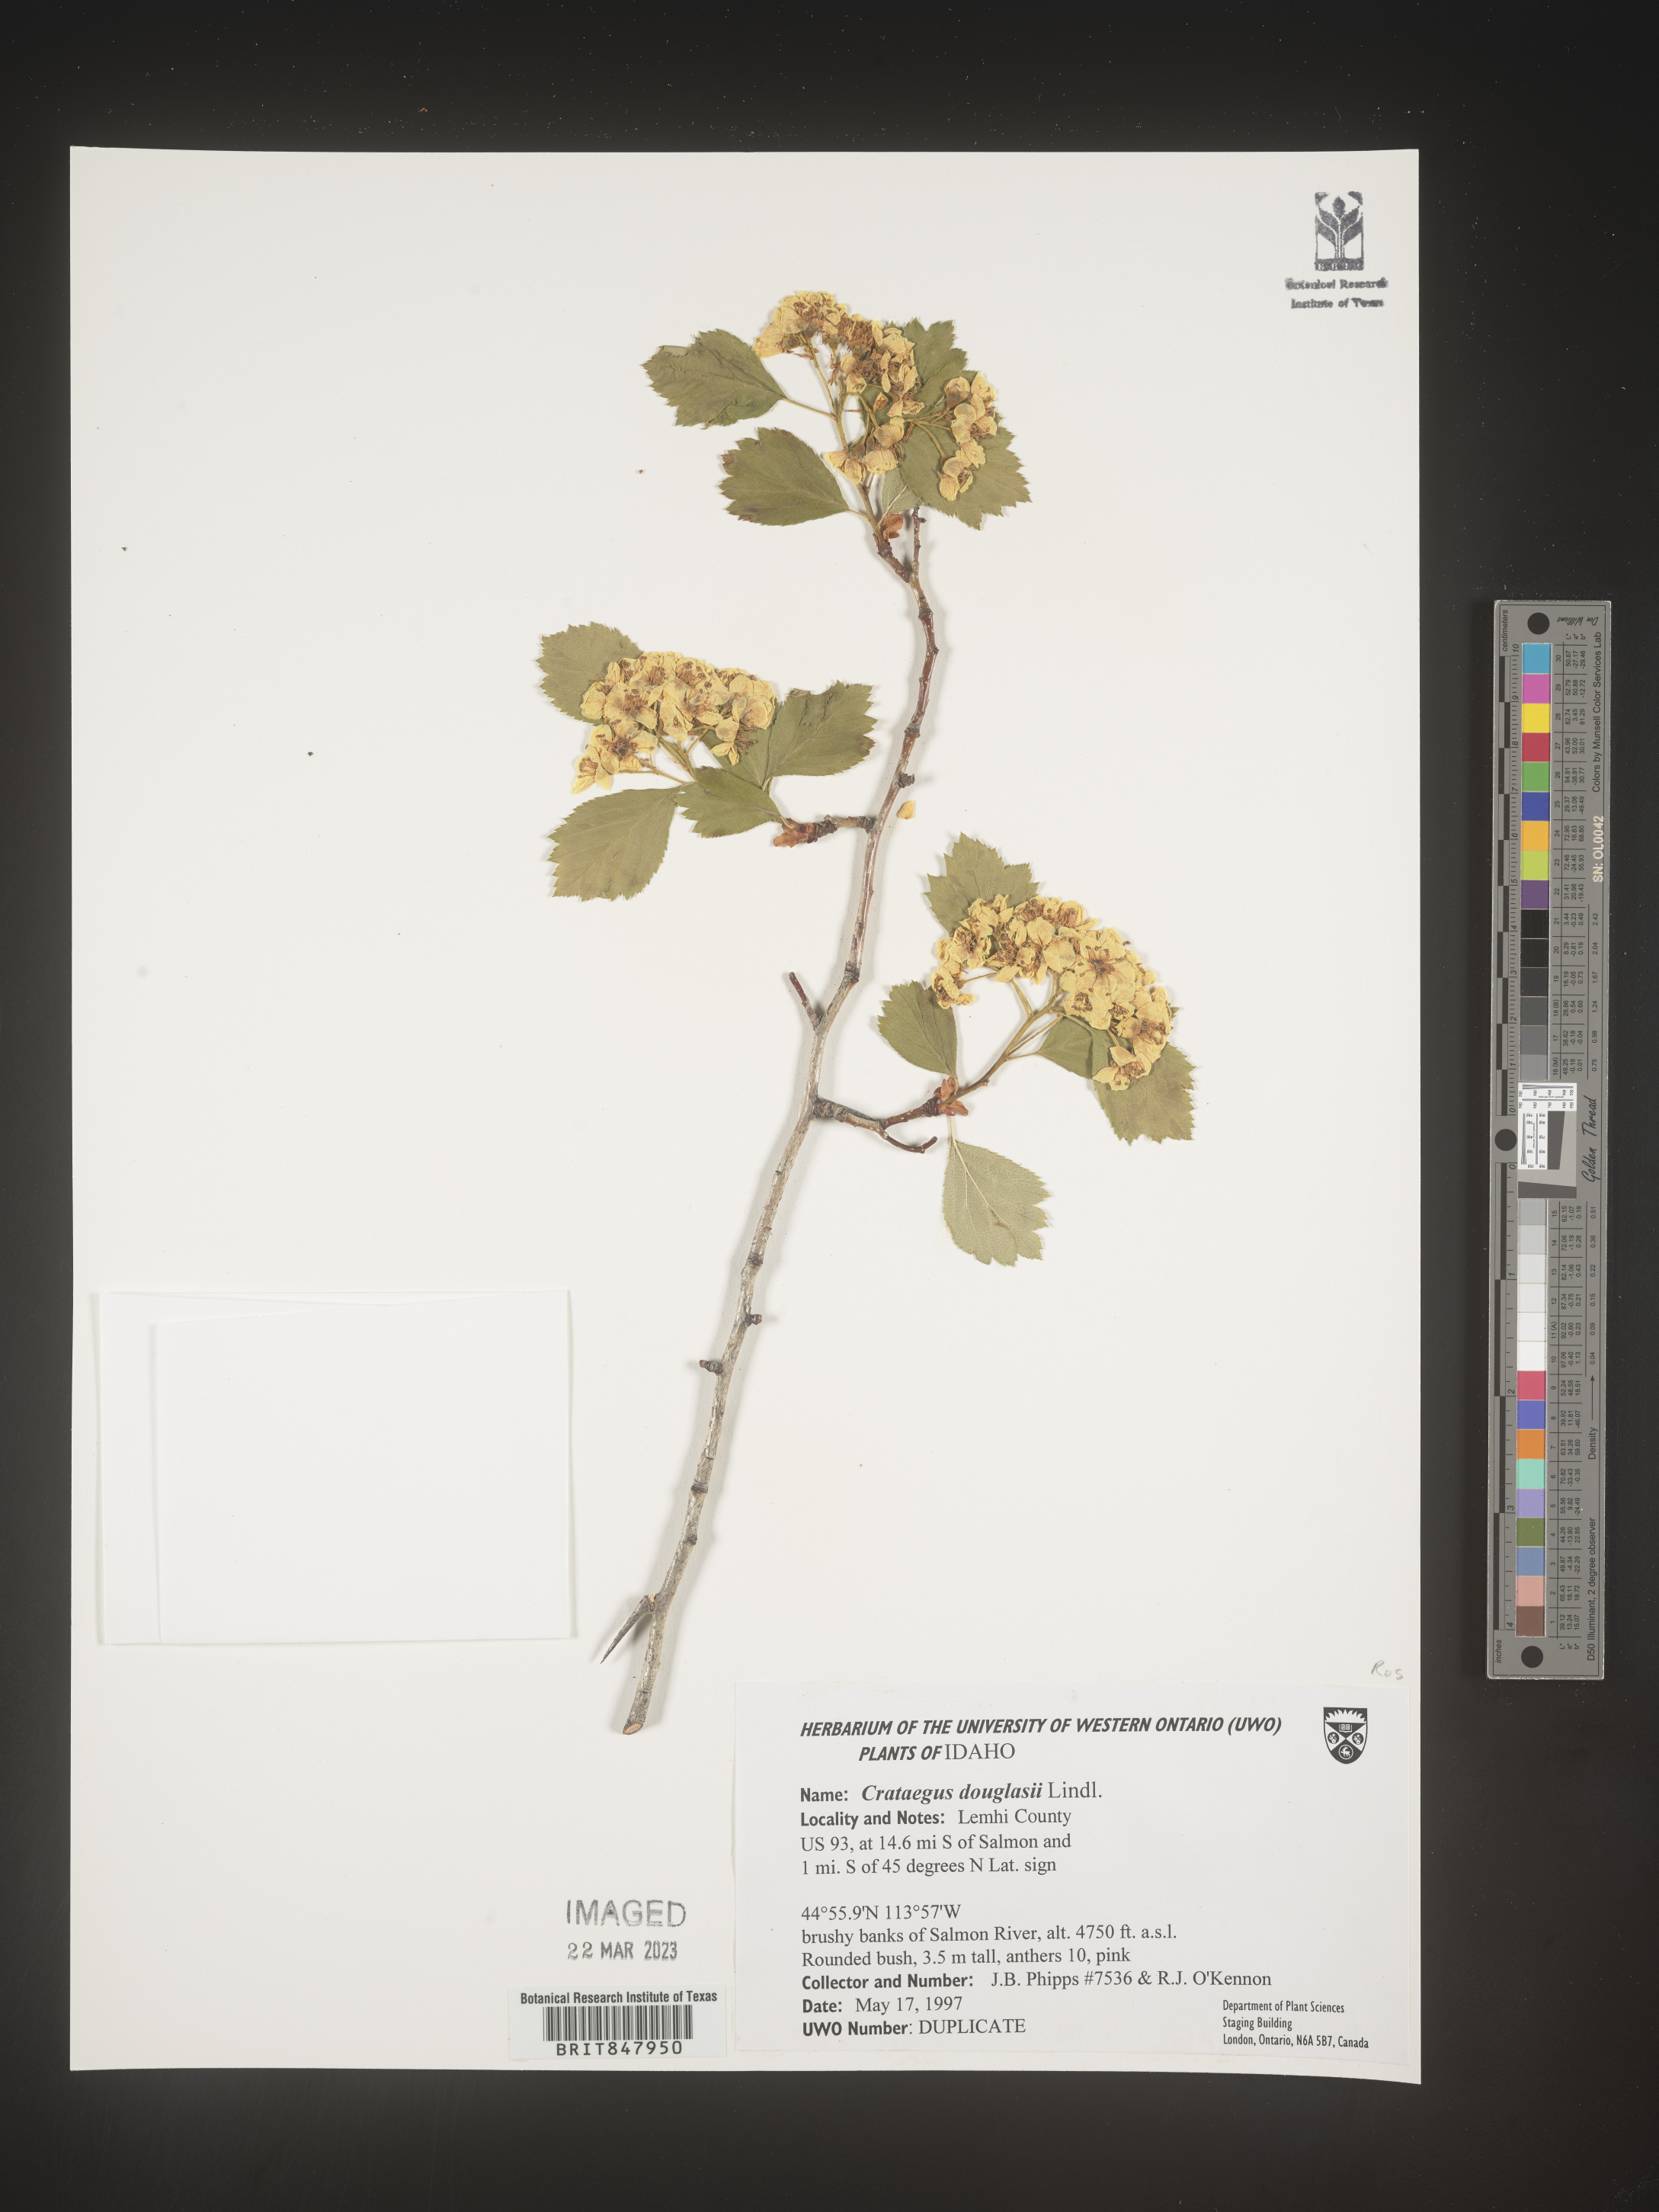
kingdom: Plantae
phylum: Tracheophyta
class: Magnoliopsida
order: Rosales
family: Rosaceae
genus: Crataegus
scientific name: Crataegus douglasii
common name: Black hawthorn
